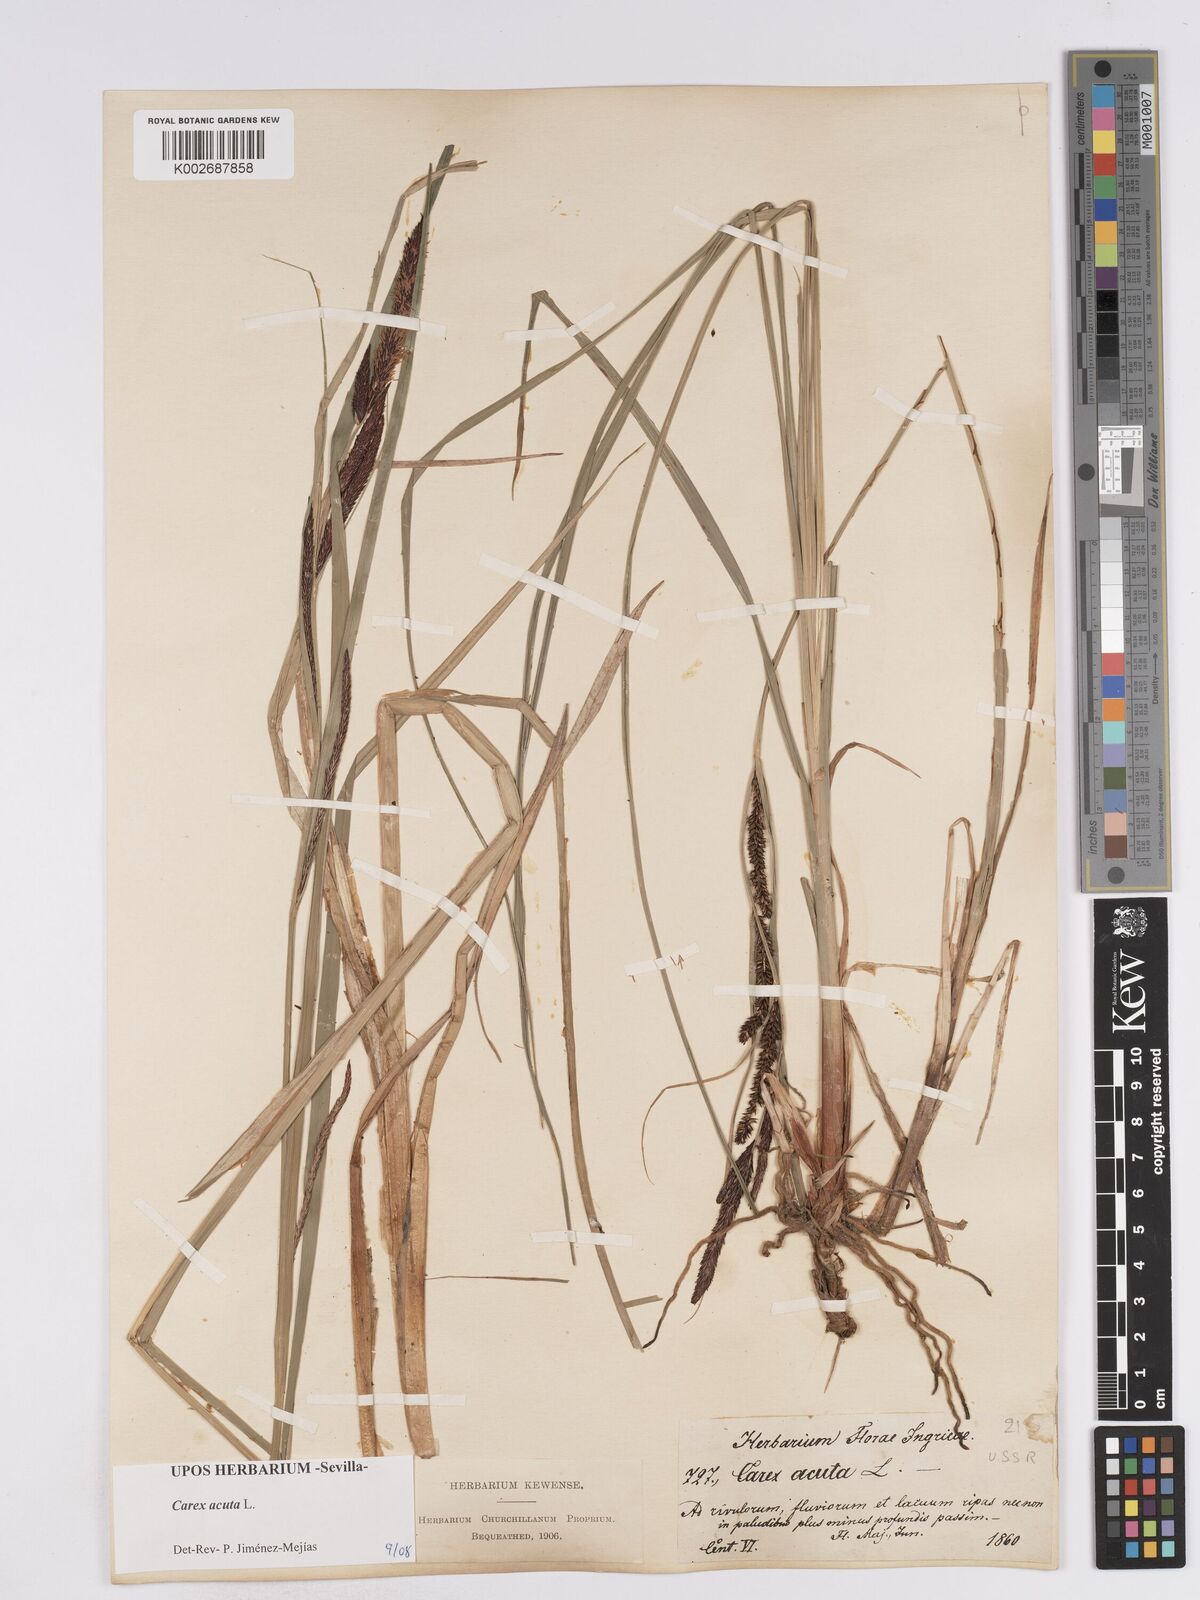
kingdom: Plantae
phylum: Tracheophyta
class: Liliopsida
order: Poales
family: Cyperaceae
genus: Carex
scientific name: Carex acuta
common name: Slender tufted-sedge
